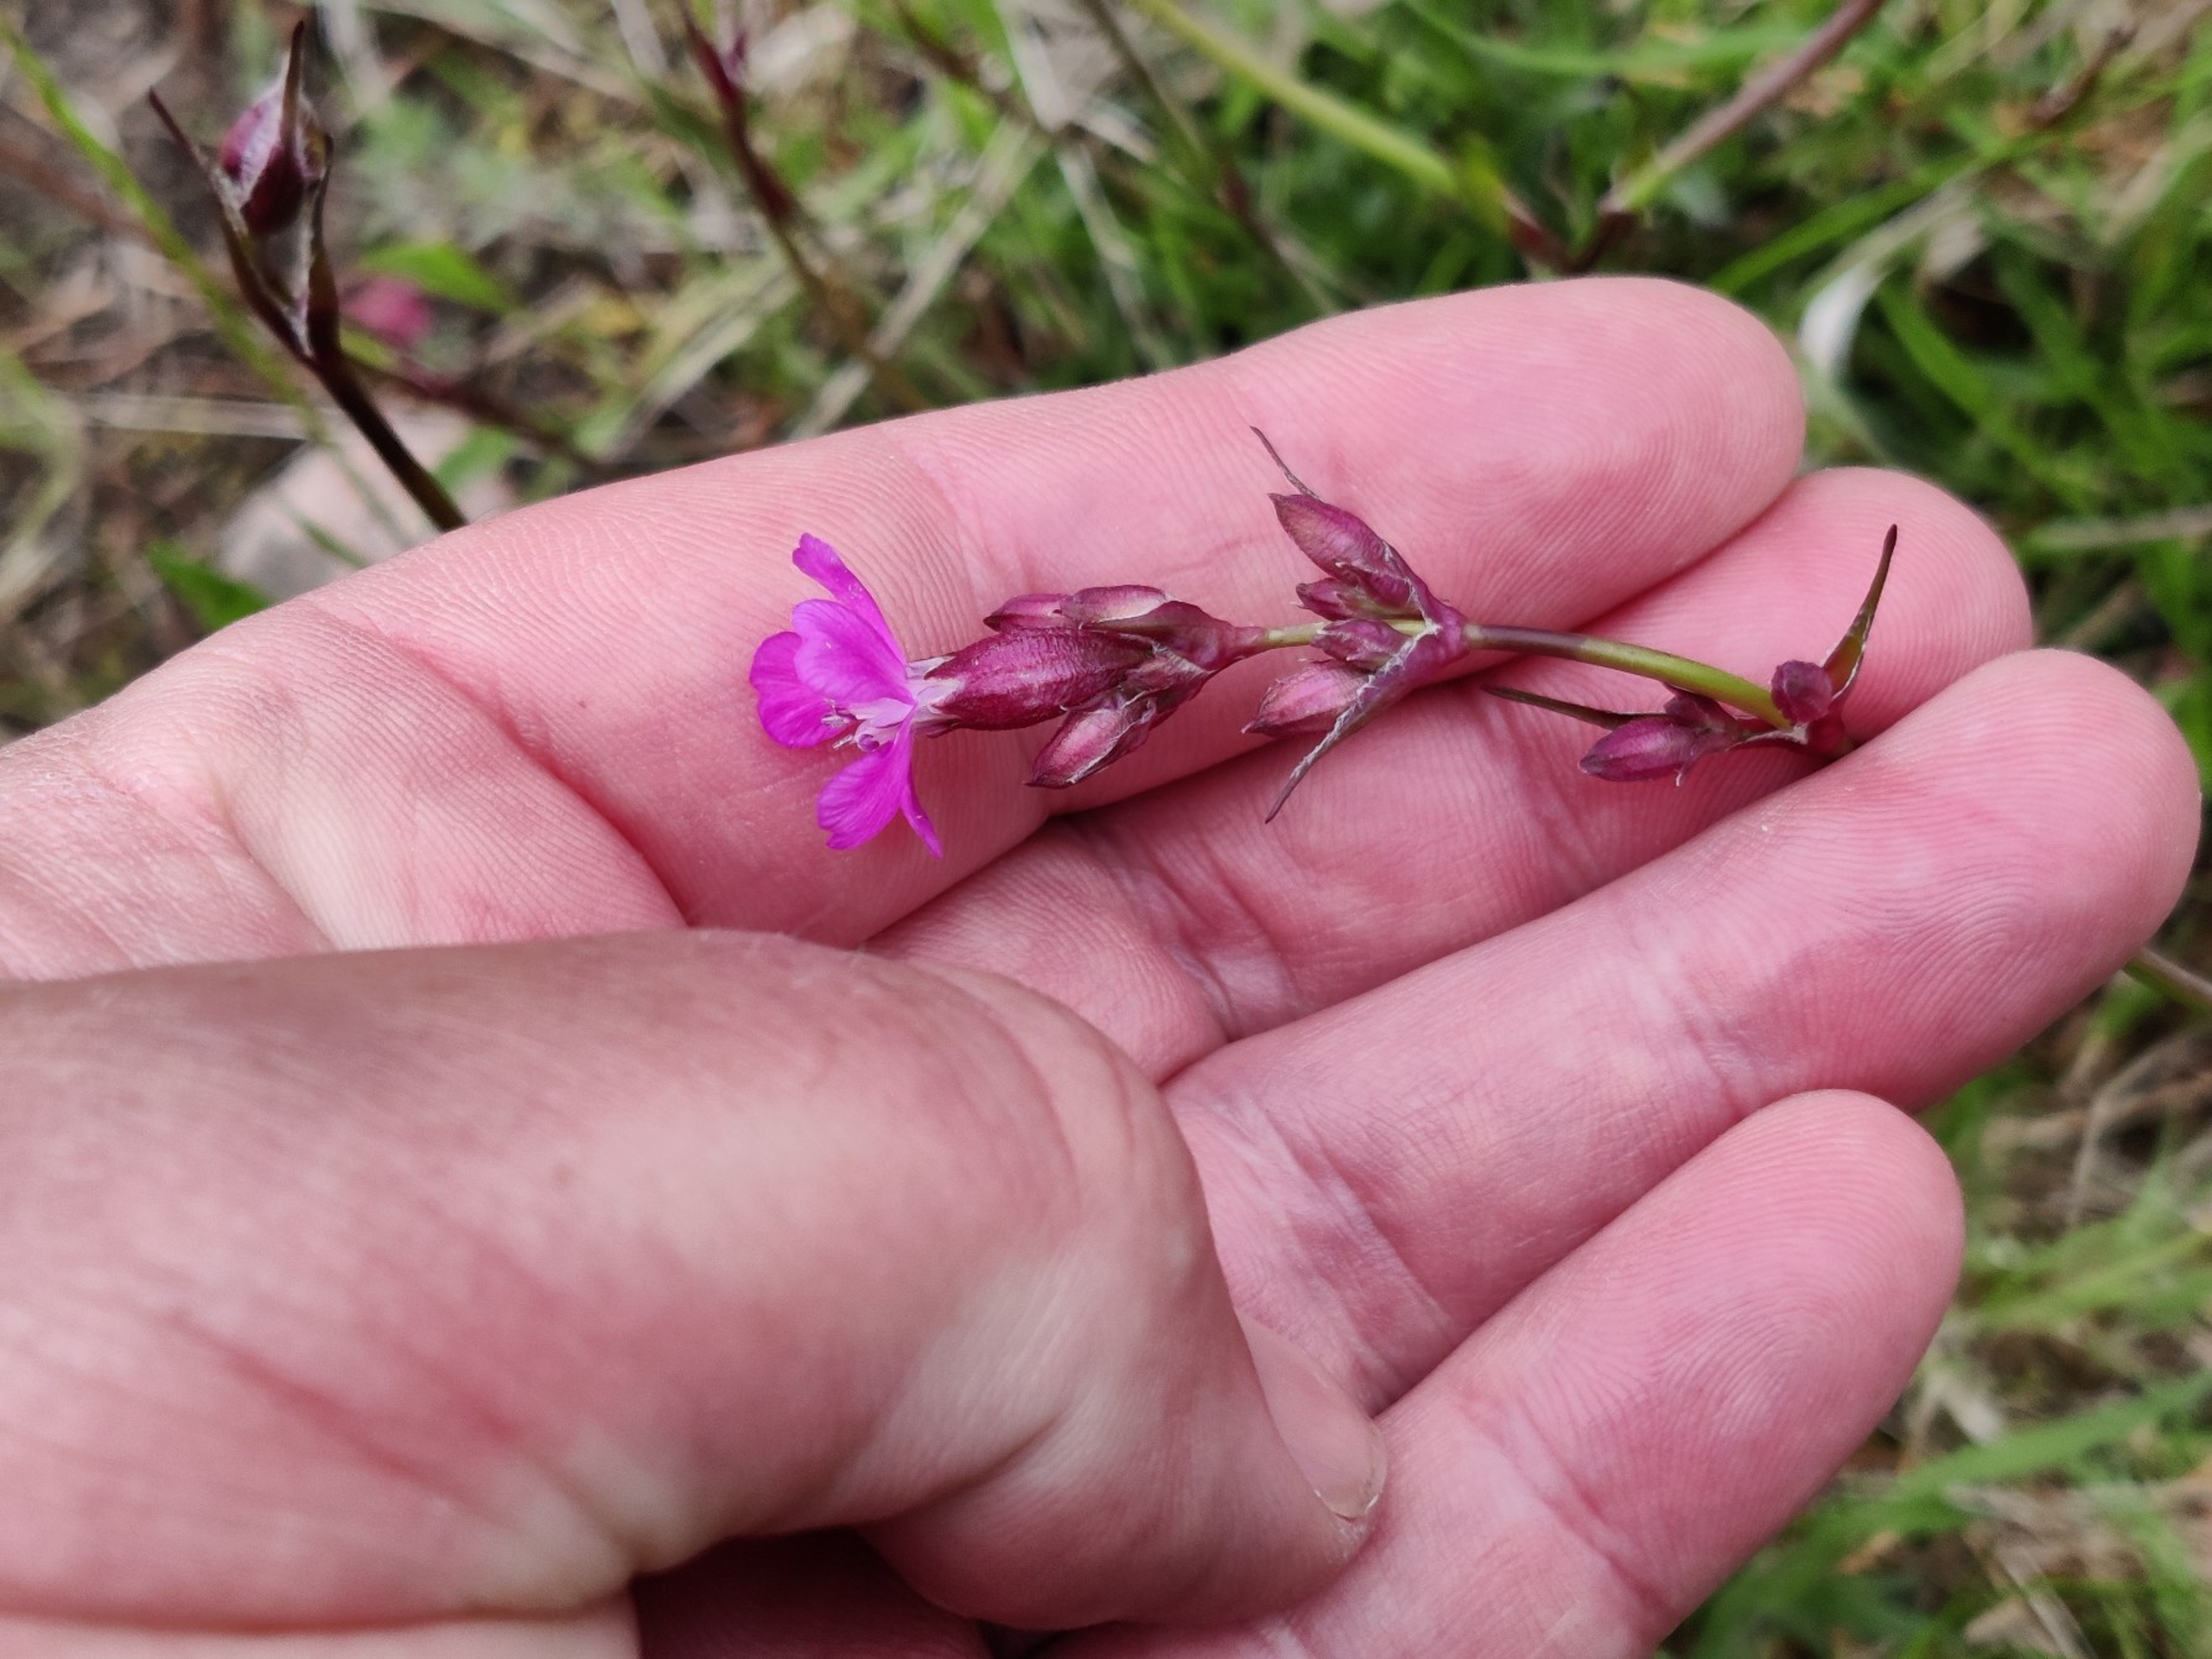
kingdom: Plantae
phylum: Tracheophyta
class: Magnoliopsida
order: Caryophyllales
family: Caryophyllaceae
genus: Viscaria
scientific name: Viscaria vulgaris
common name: Tjærenellike
